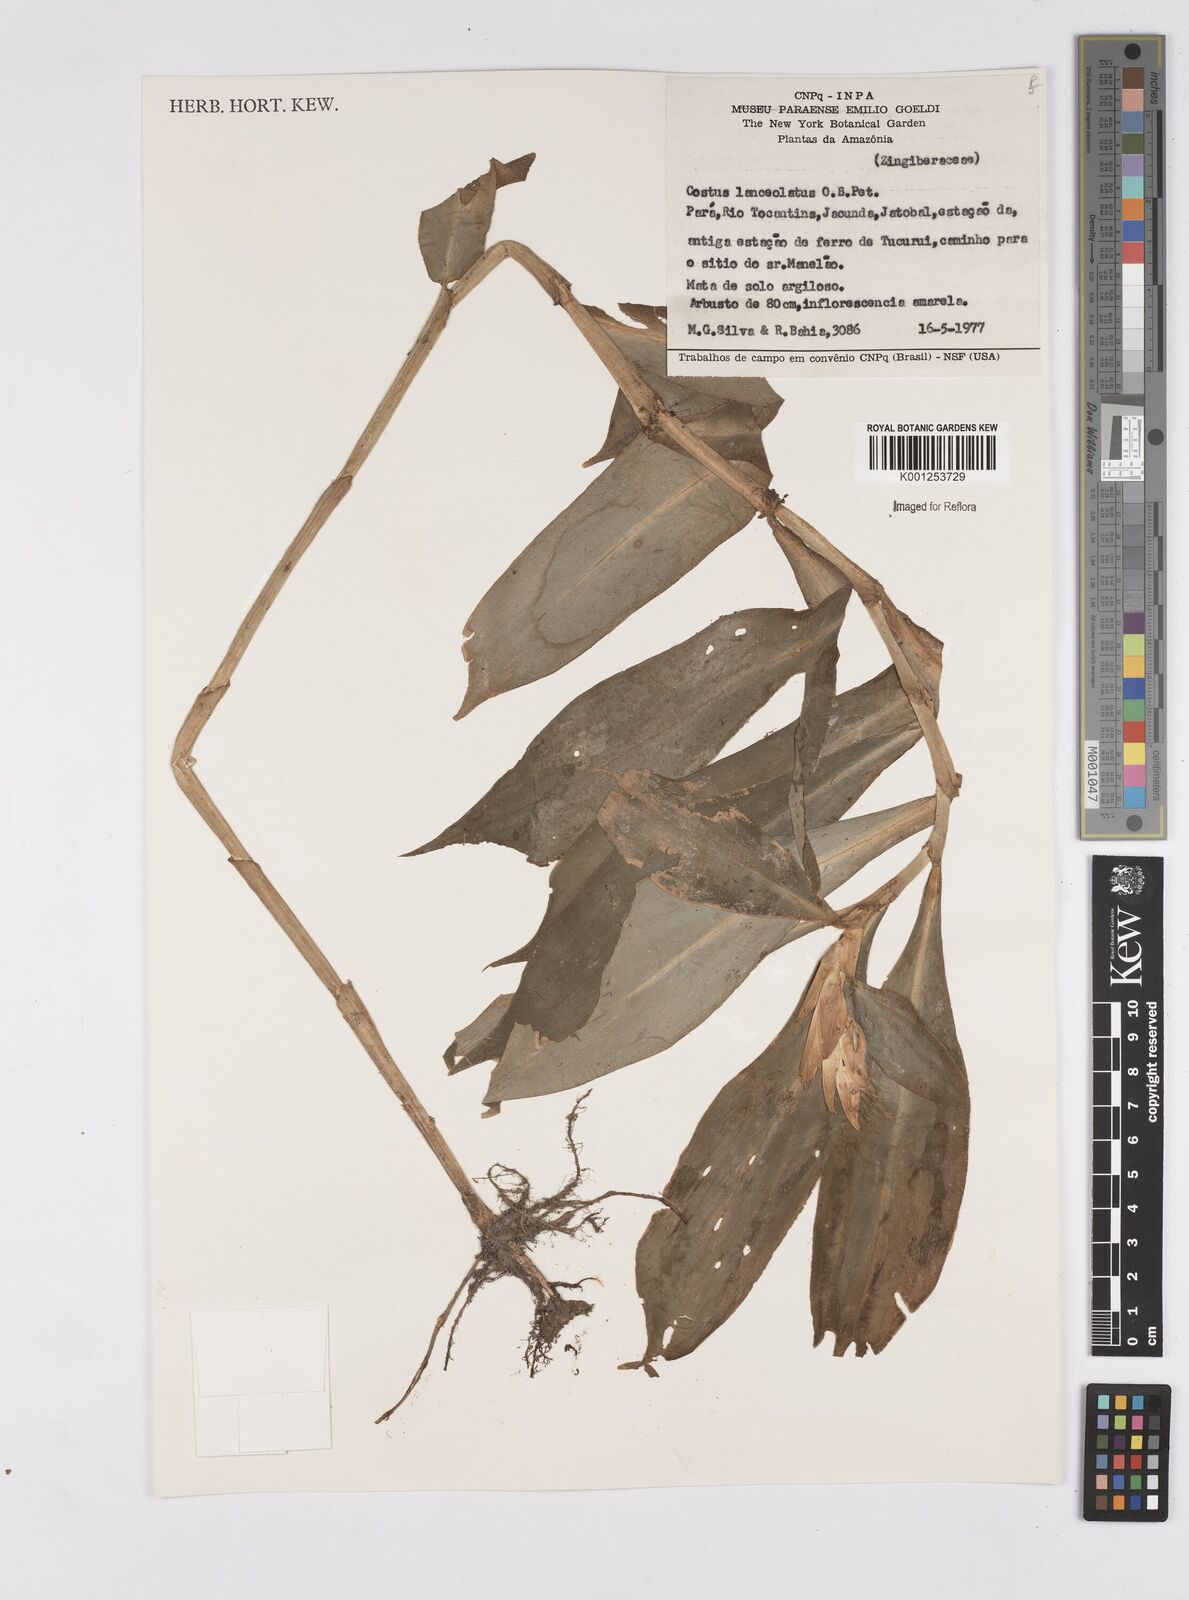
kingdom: Plantae
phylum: Tracheophyta
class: Liliopsida
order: Zingiberales
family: Costaceae
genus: Chamaecostus
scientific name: Chamaecostus lanceolatus
